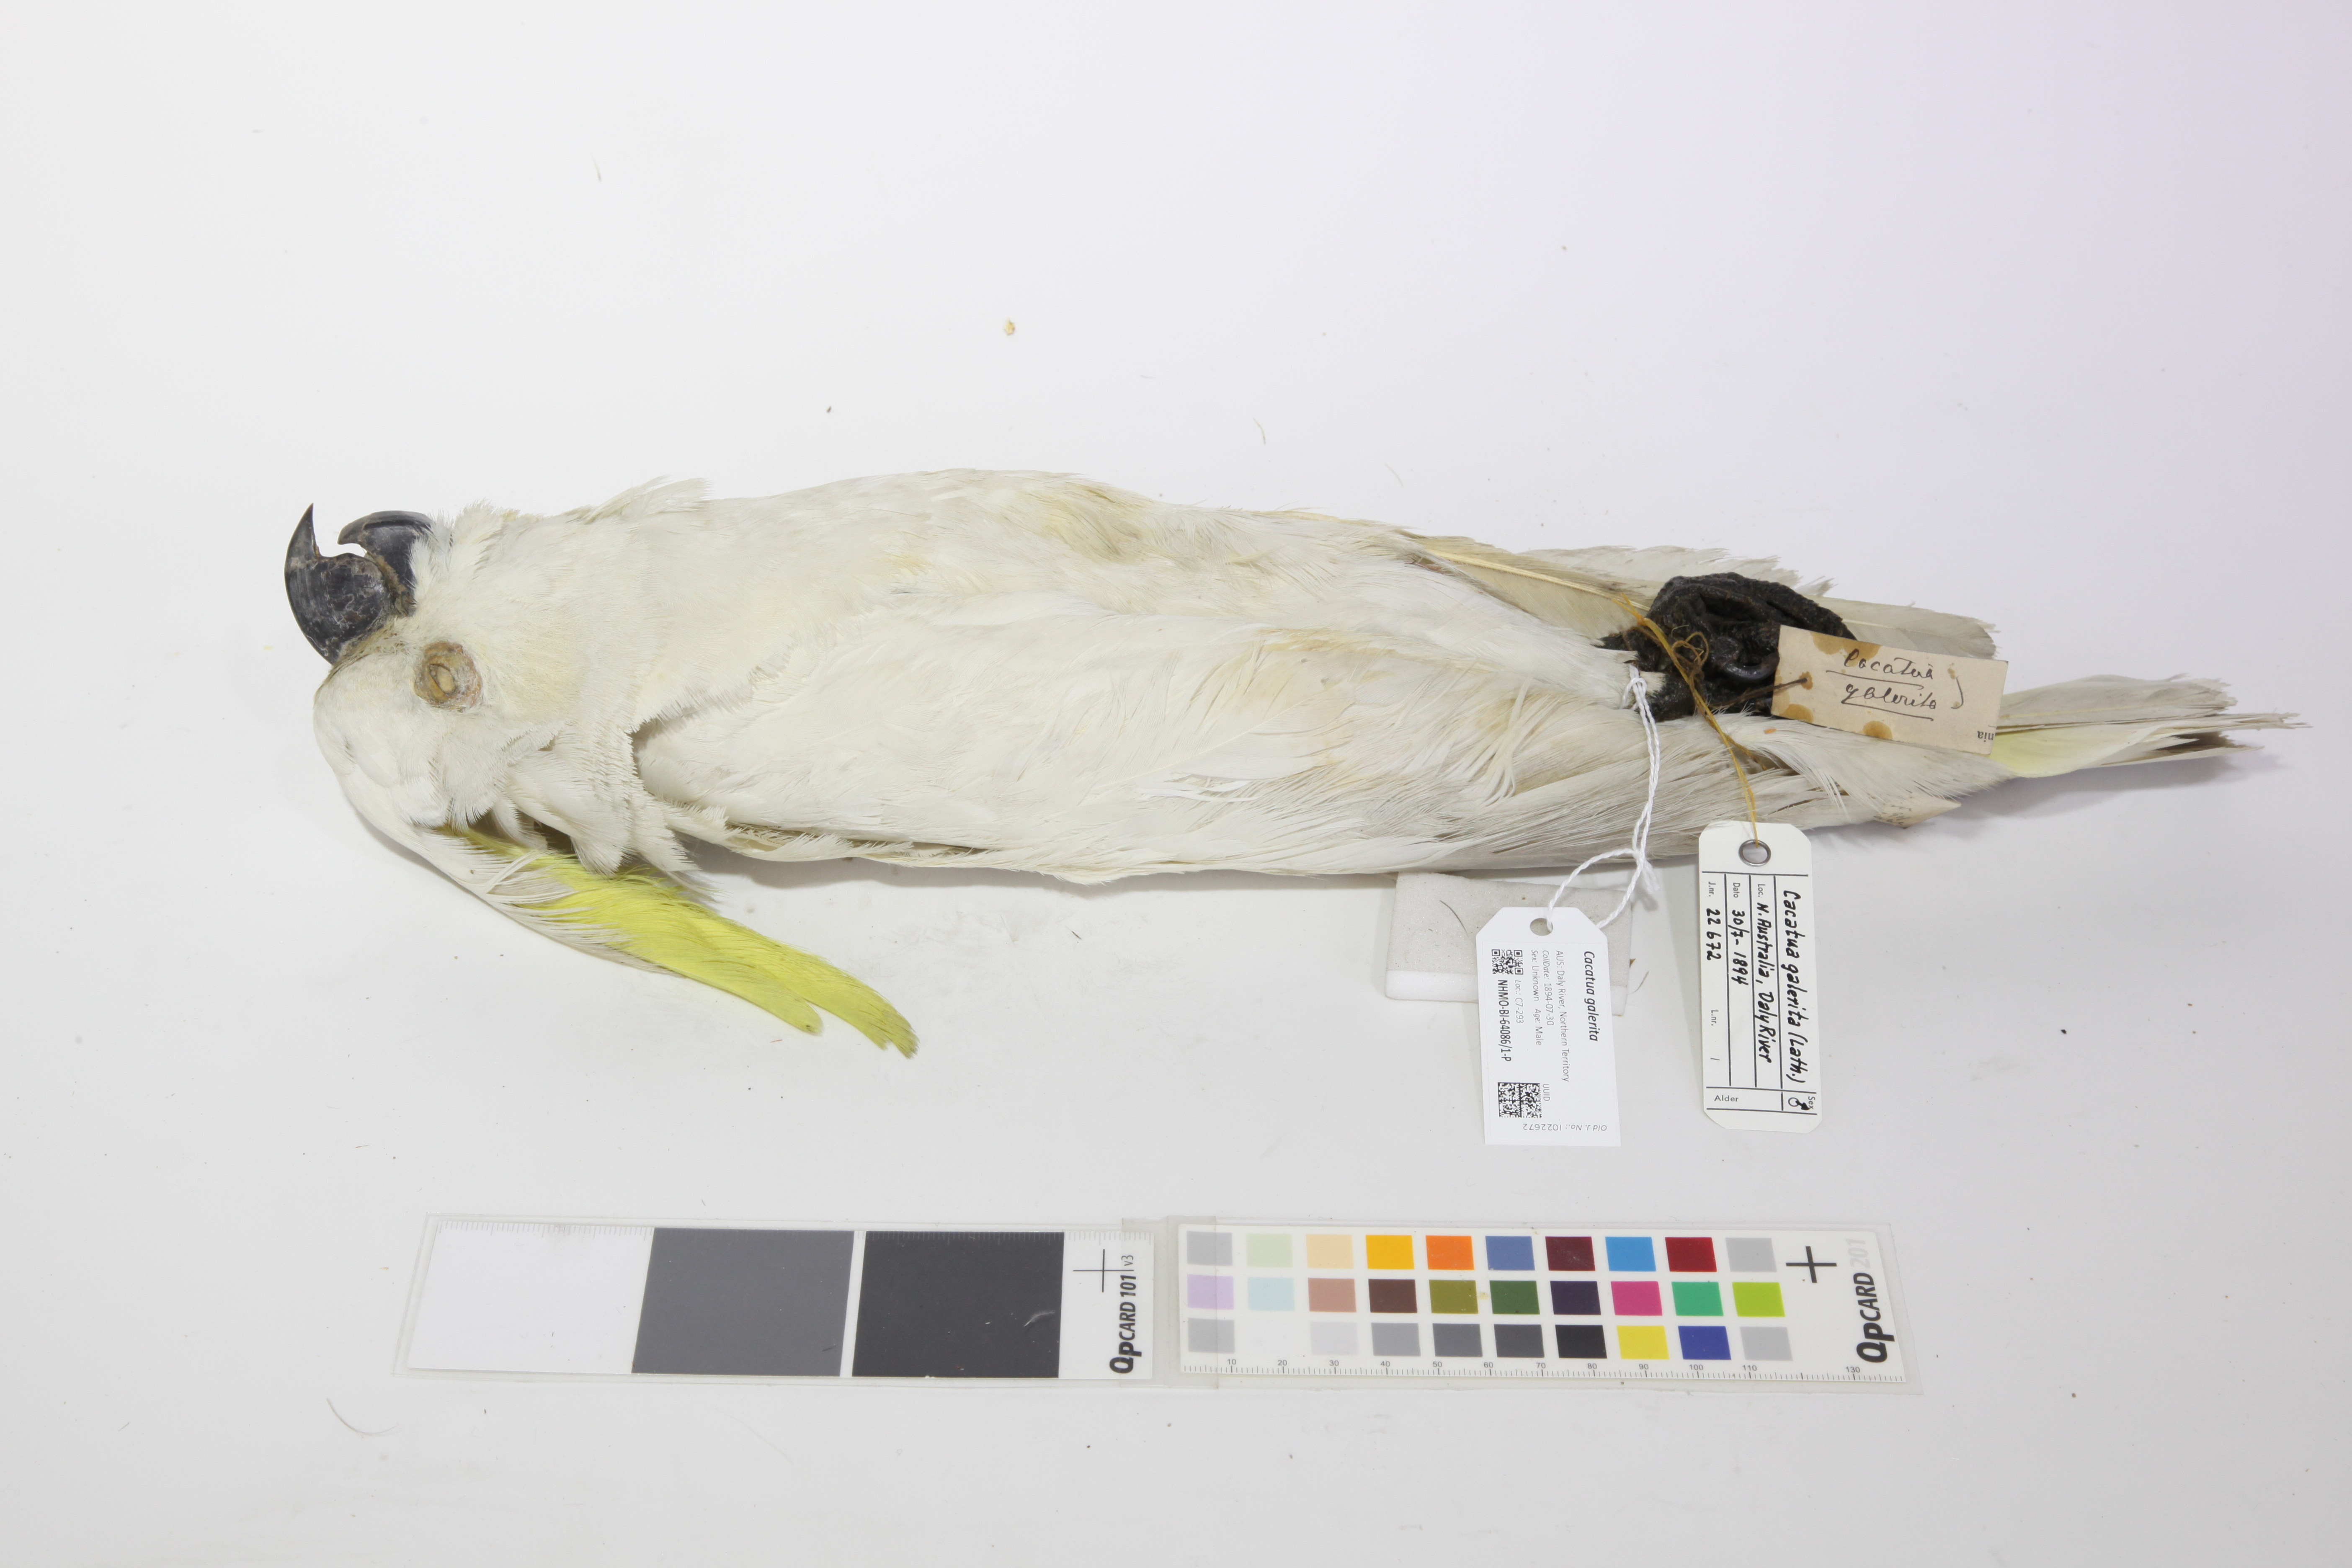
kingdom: Animalia
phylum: Chordata
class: Aves
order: Psittaciformes
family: Psittacidae
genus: Cacatua
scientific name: Cacatua galerita
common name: Sulphur-crested cockatoo
